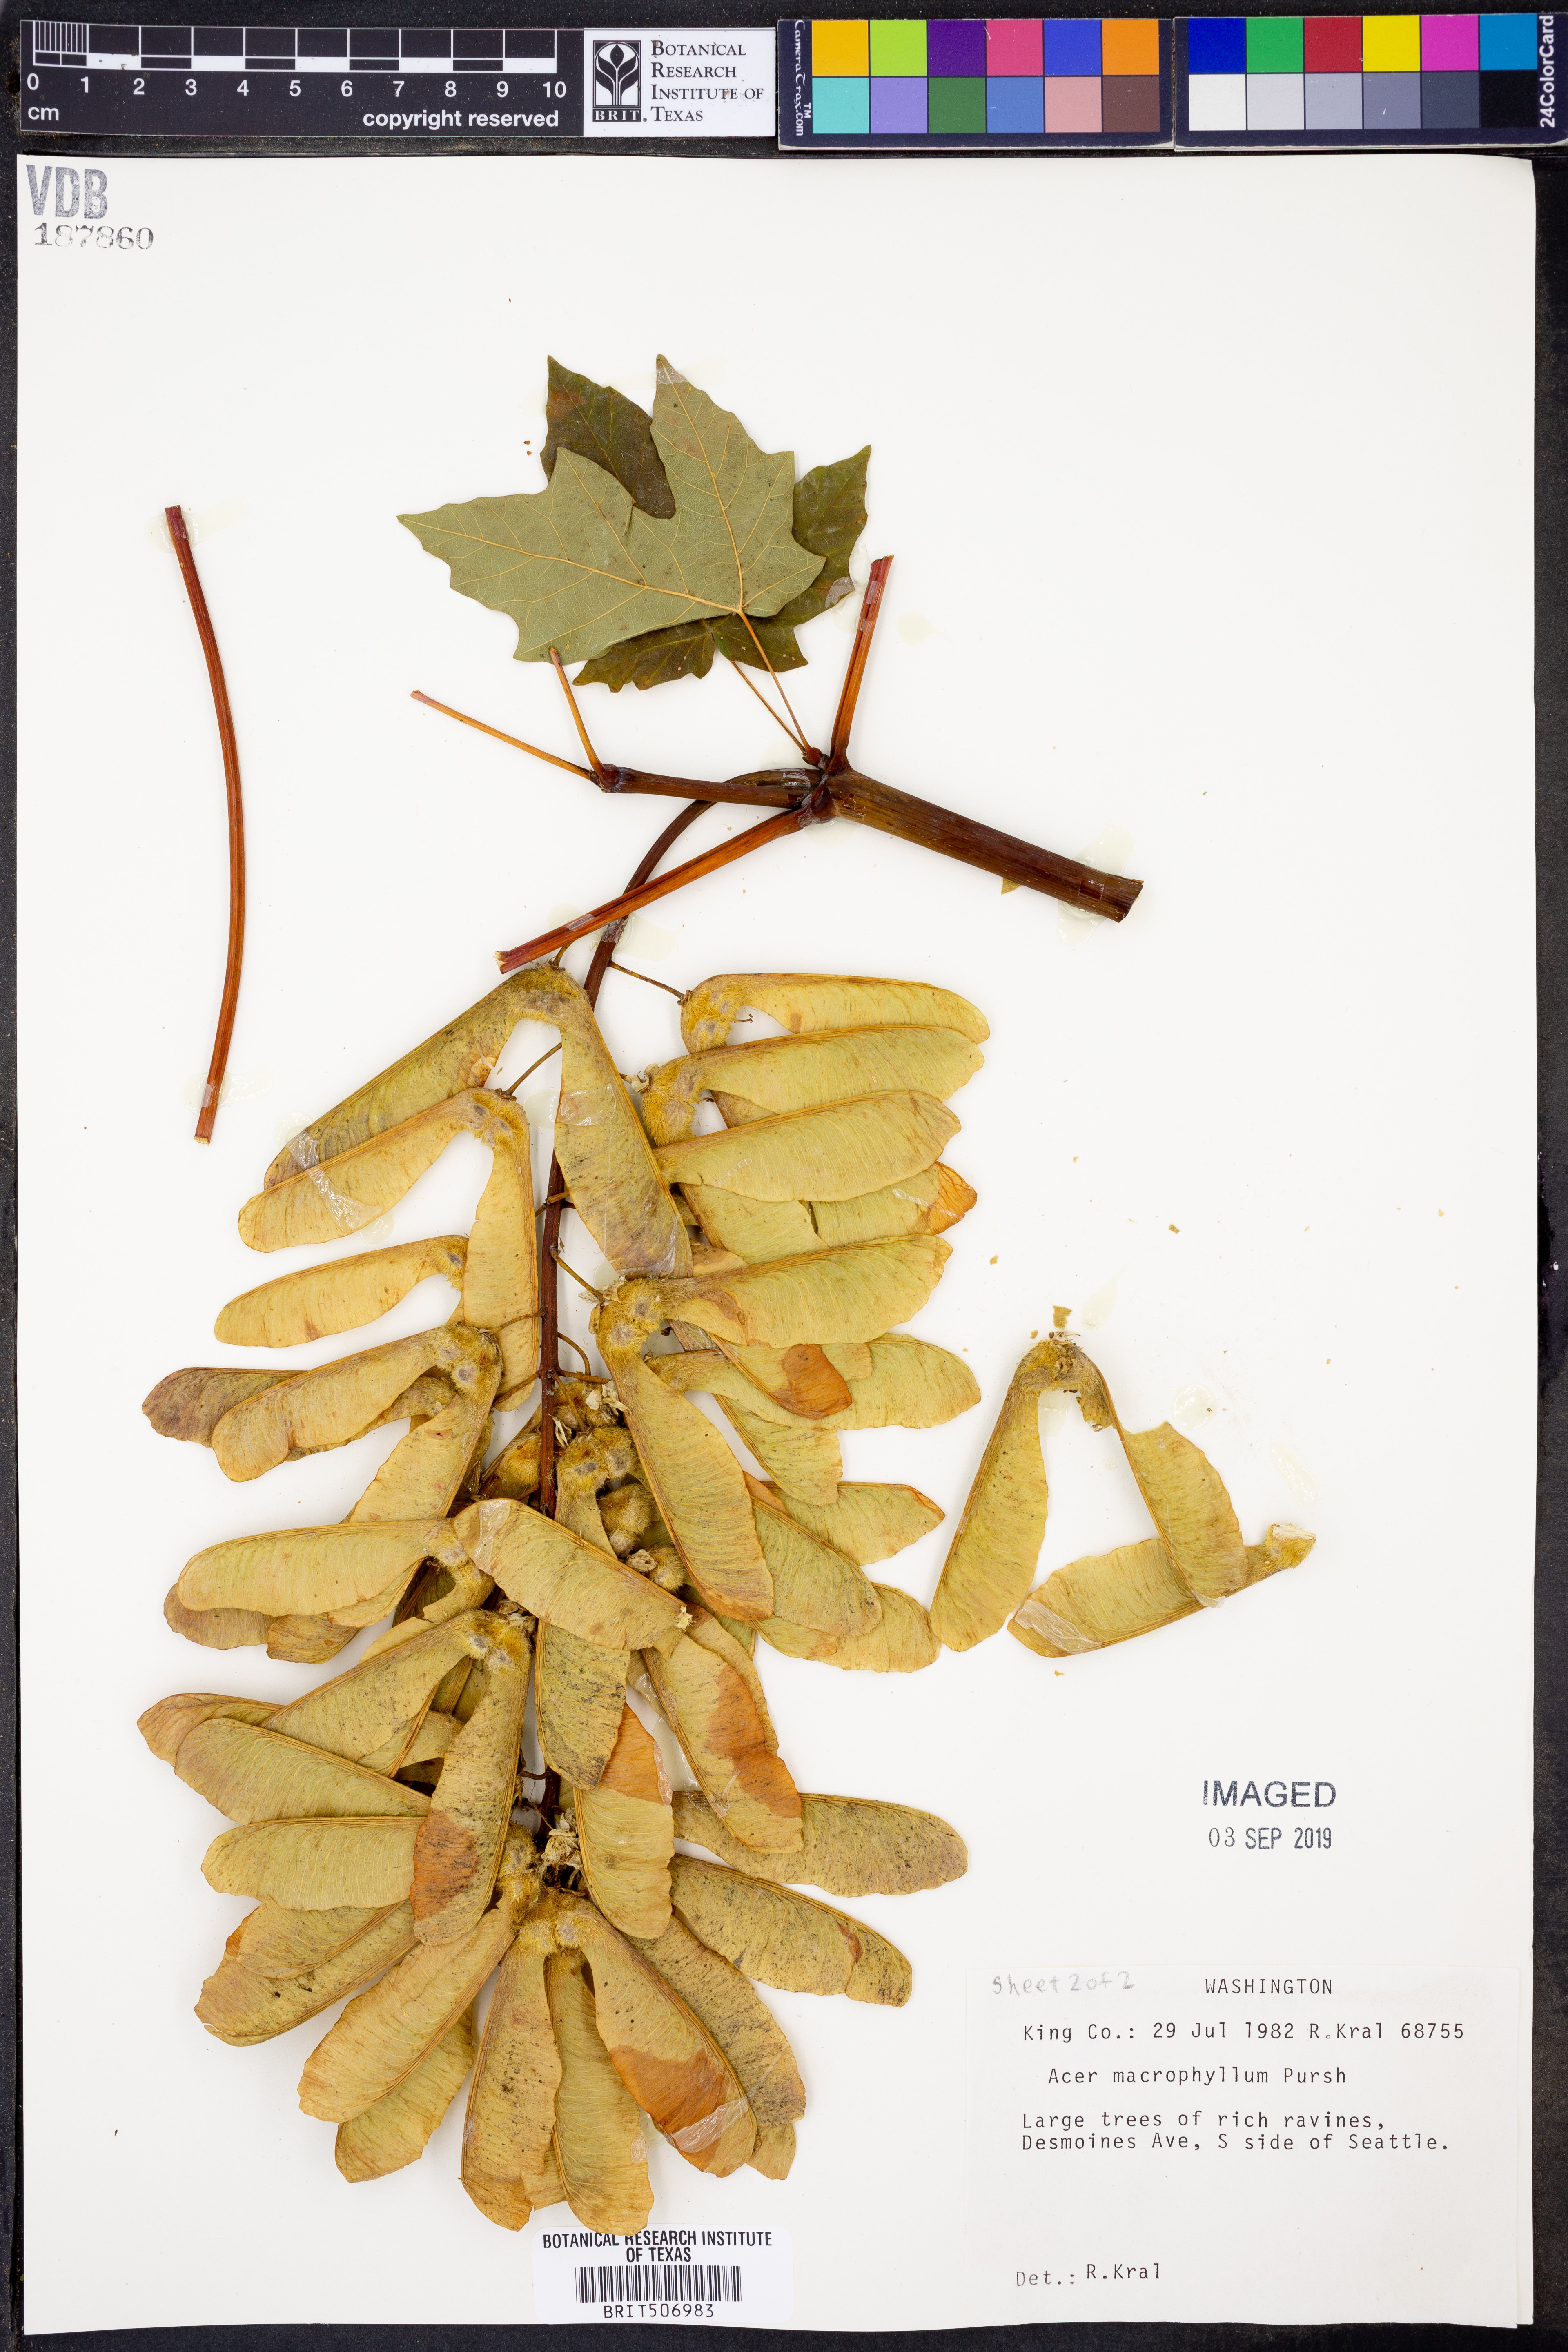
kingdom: Plantae
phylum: Tracheophyta
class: Magnoliopsida
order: Sapindales
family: Sapindaceae
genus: Acer
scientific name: Acer macrophyllum
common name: Oregon maple
